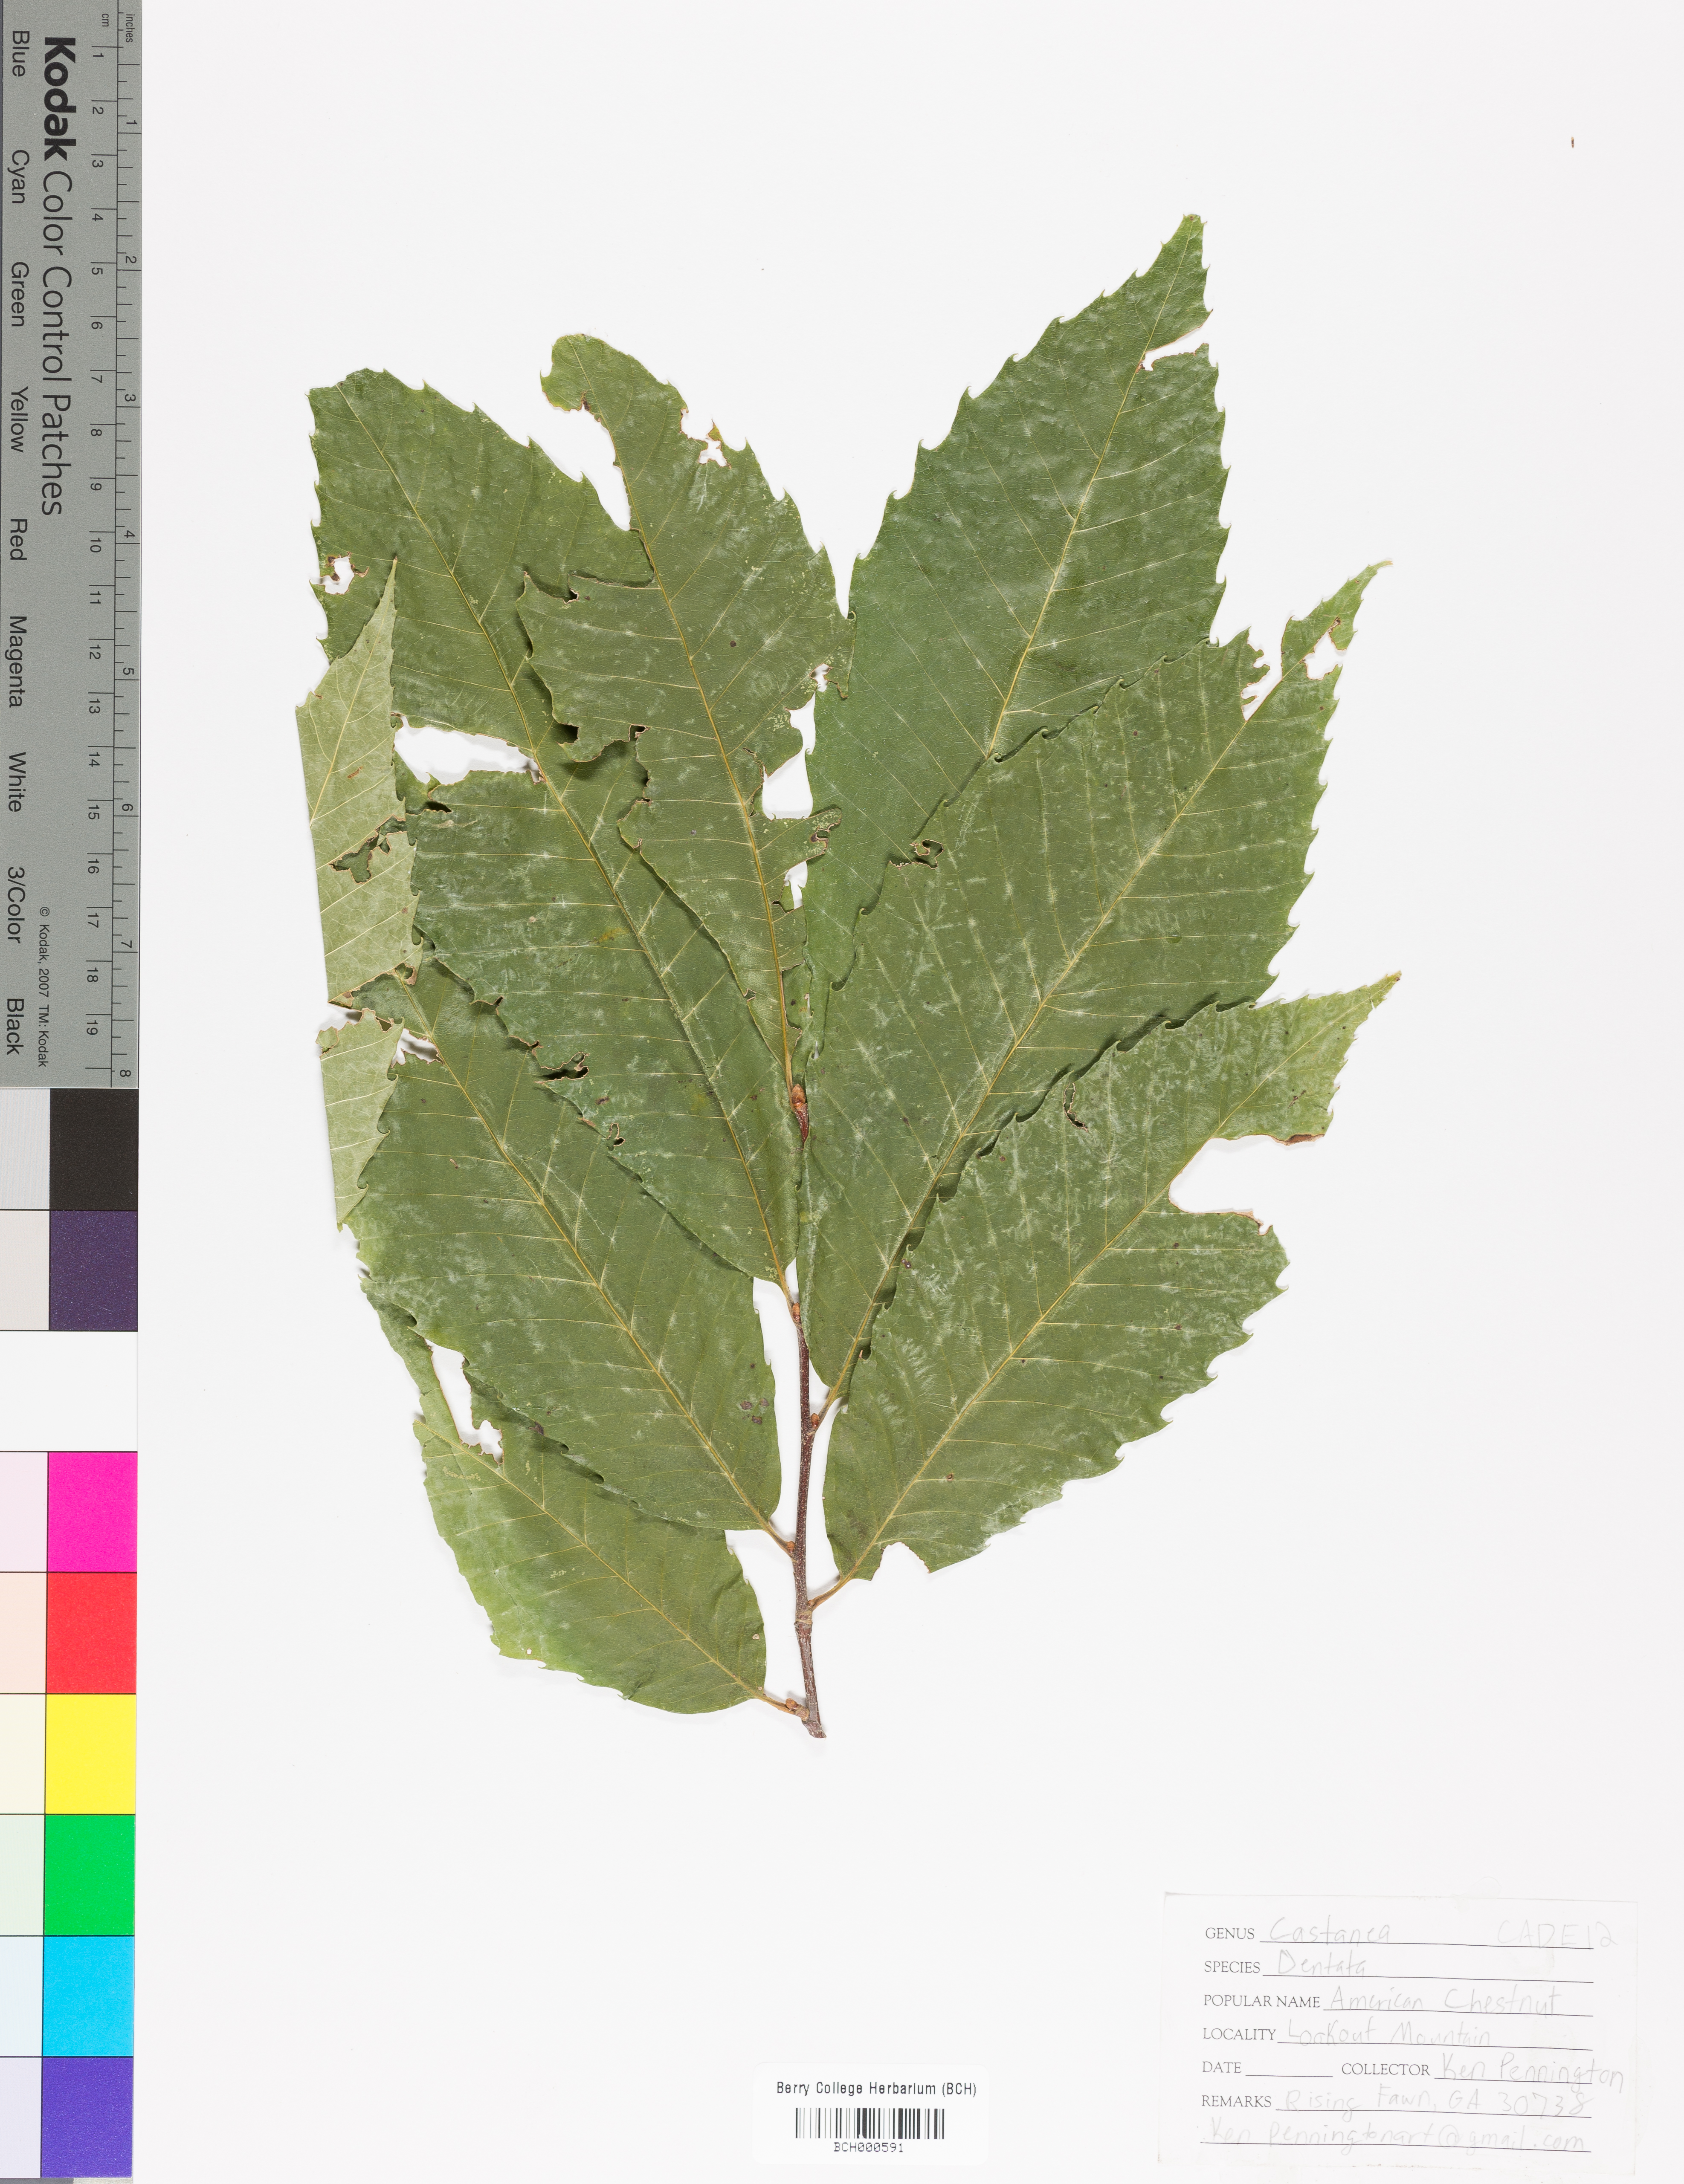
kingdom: Plantae
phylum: Tracheophyta
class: Magnoliopsida
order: Fagales
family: Fagaceae
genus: Castanea
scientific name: Castanea dentata
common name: American chestnut
